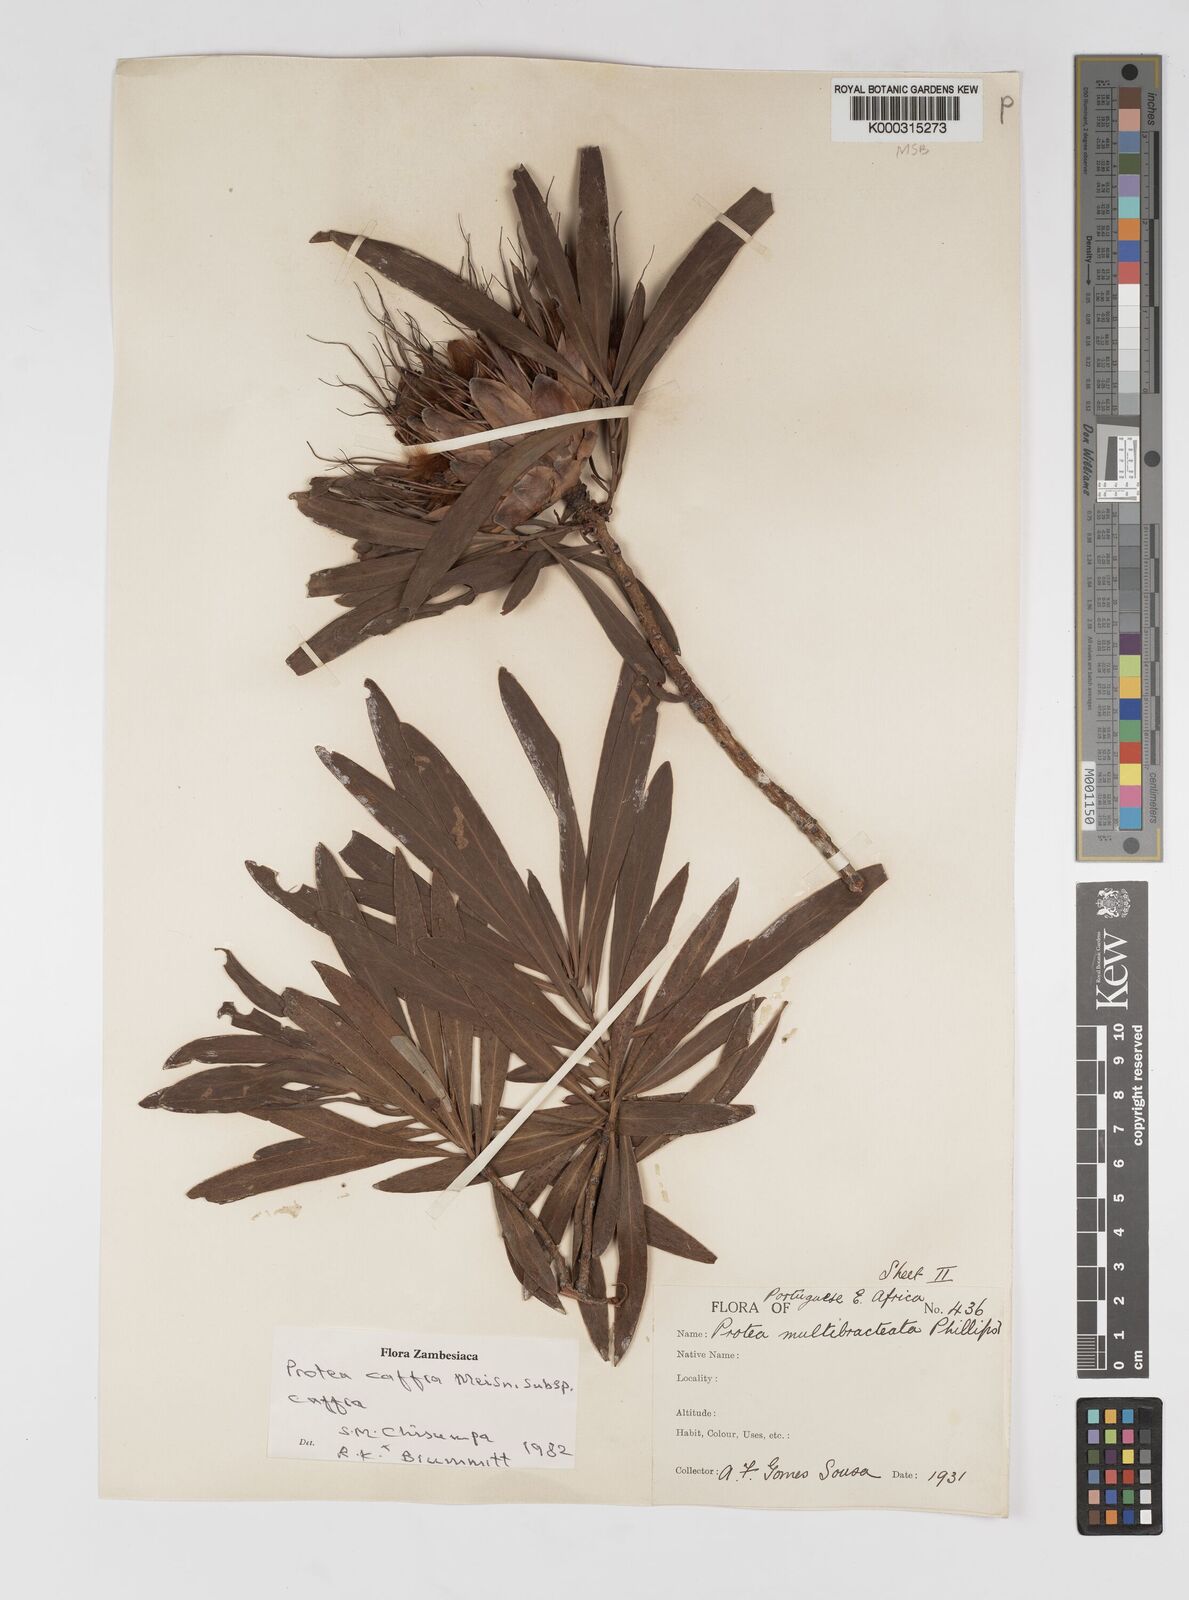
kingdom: Plantae
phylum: Tracheophyta
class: Magnoliopsida
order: Proteales
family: Proteaceae
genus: Protea
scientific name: Protea caffra
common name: Common sugarbush
